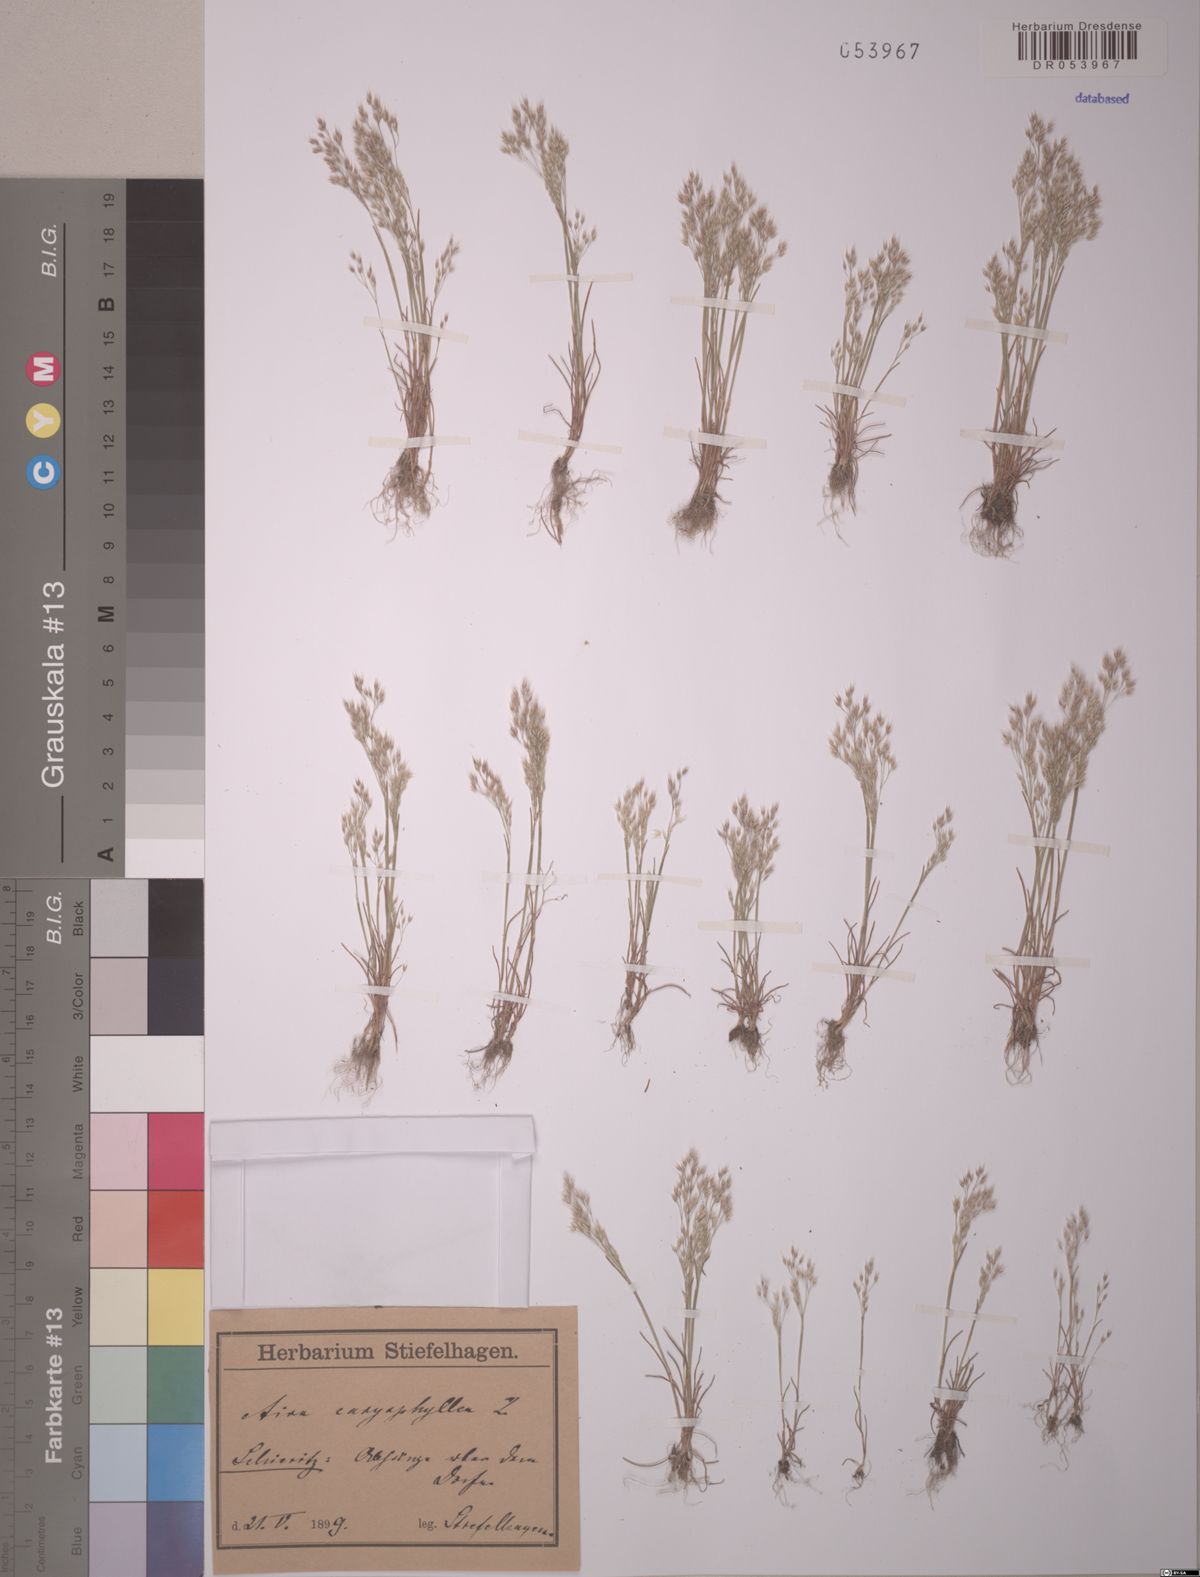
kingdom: Plantae
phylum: Tracheophyta
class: Liliopsida
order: Poales
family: Poaceae
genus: Aira
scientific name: Aira caryophyllea
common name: Silver hairgrass
